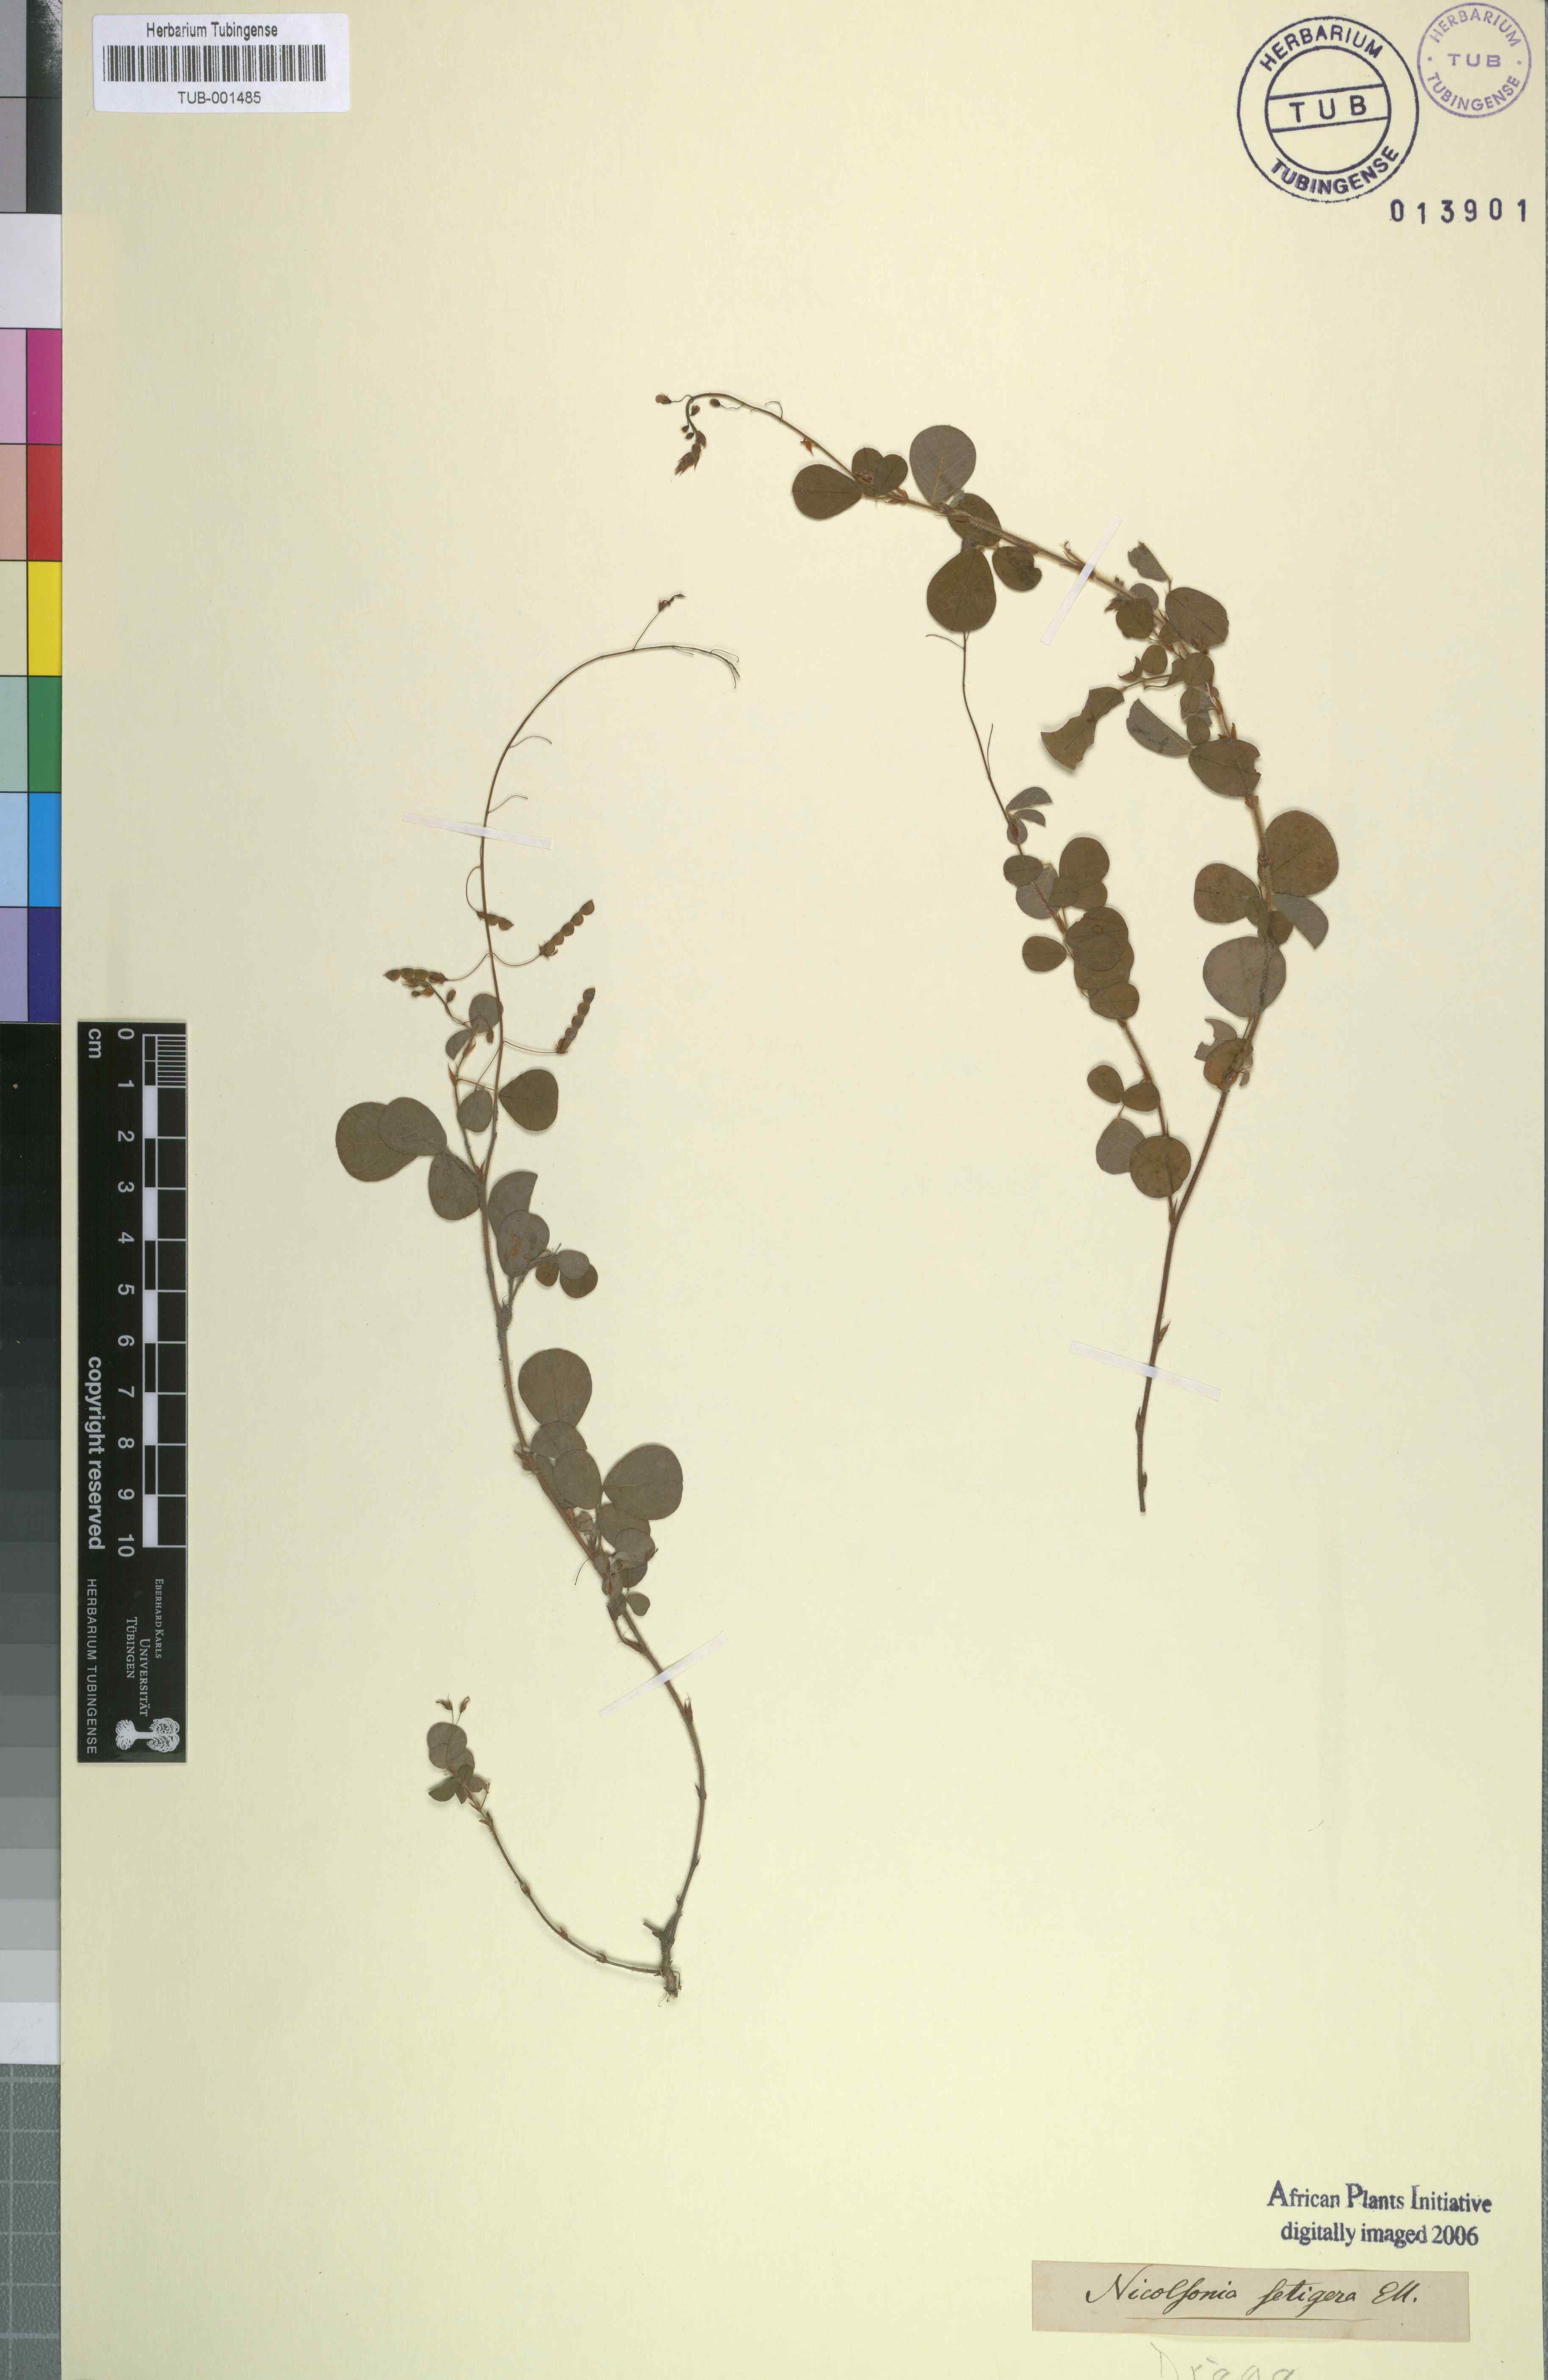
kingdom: Plantae
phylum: Tracheophyta
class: Magnoliopsida
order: Fabales
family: Fabaceae
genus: Grona
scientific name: Grona hirta
